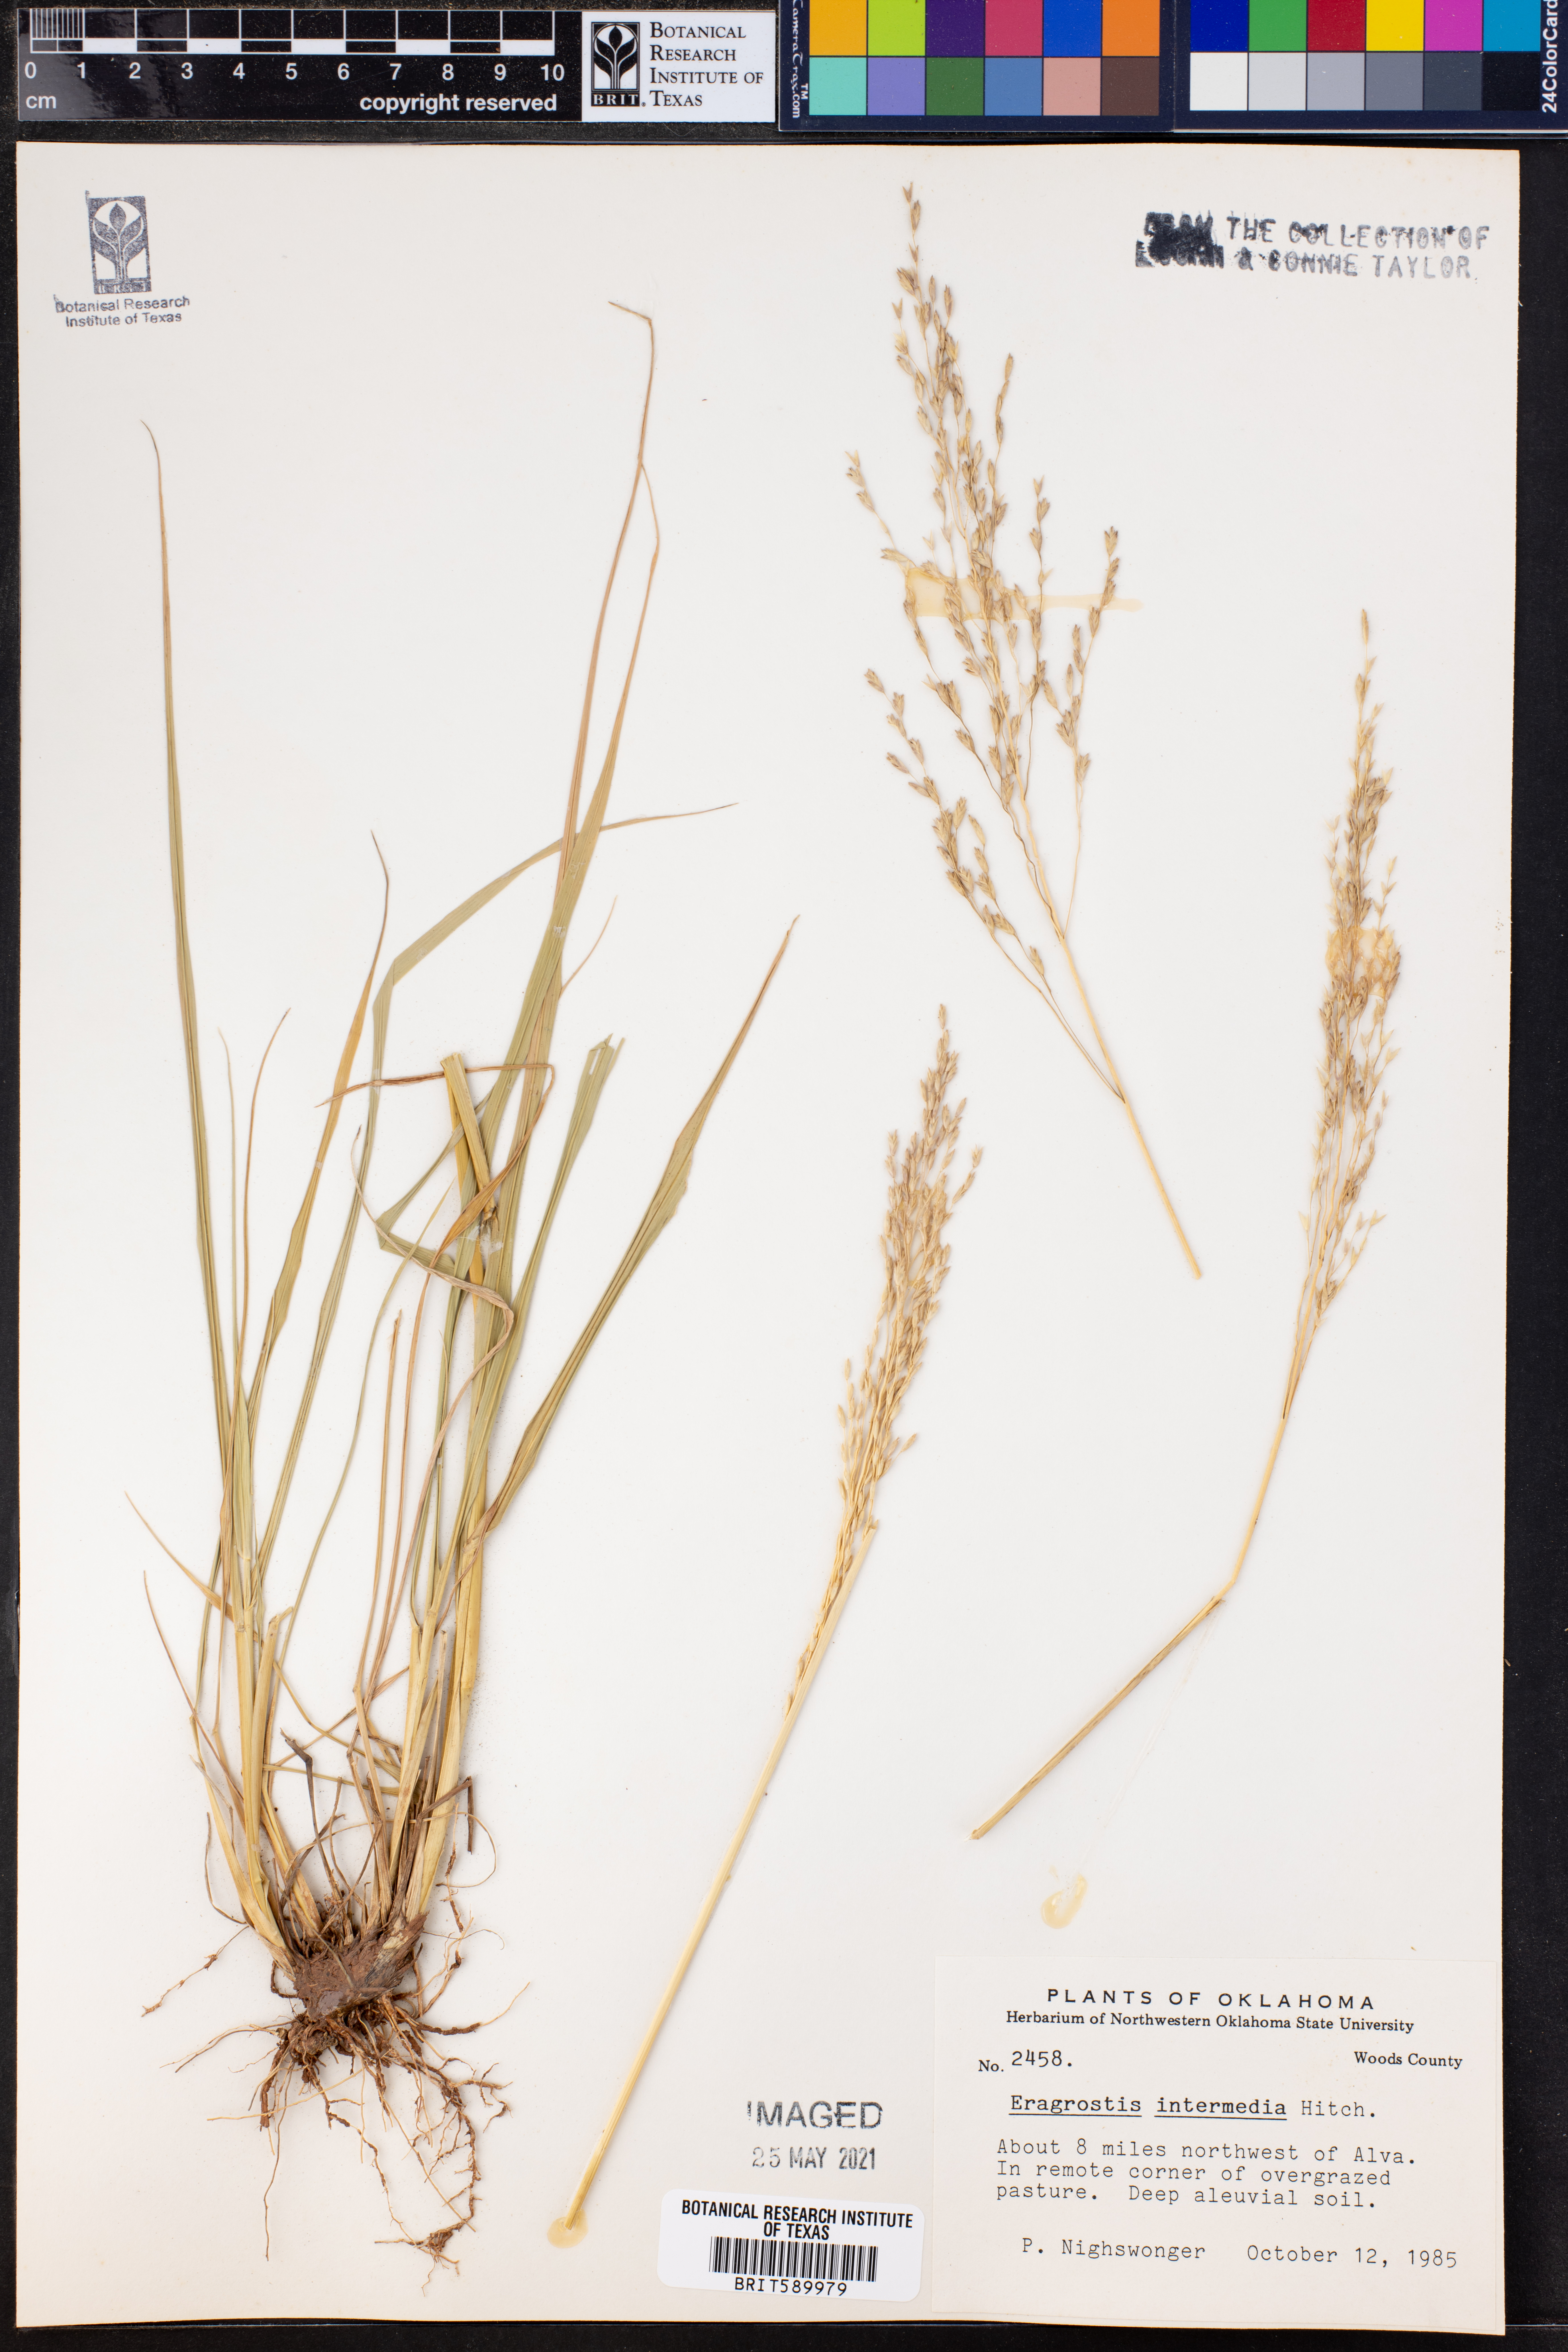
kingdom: Plantae
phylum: Tracheophyta
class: Liliopsida
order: Poales
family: Poaceae
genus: Eragrostis
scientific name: Eragrostis intermedia
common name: Plains love grass
